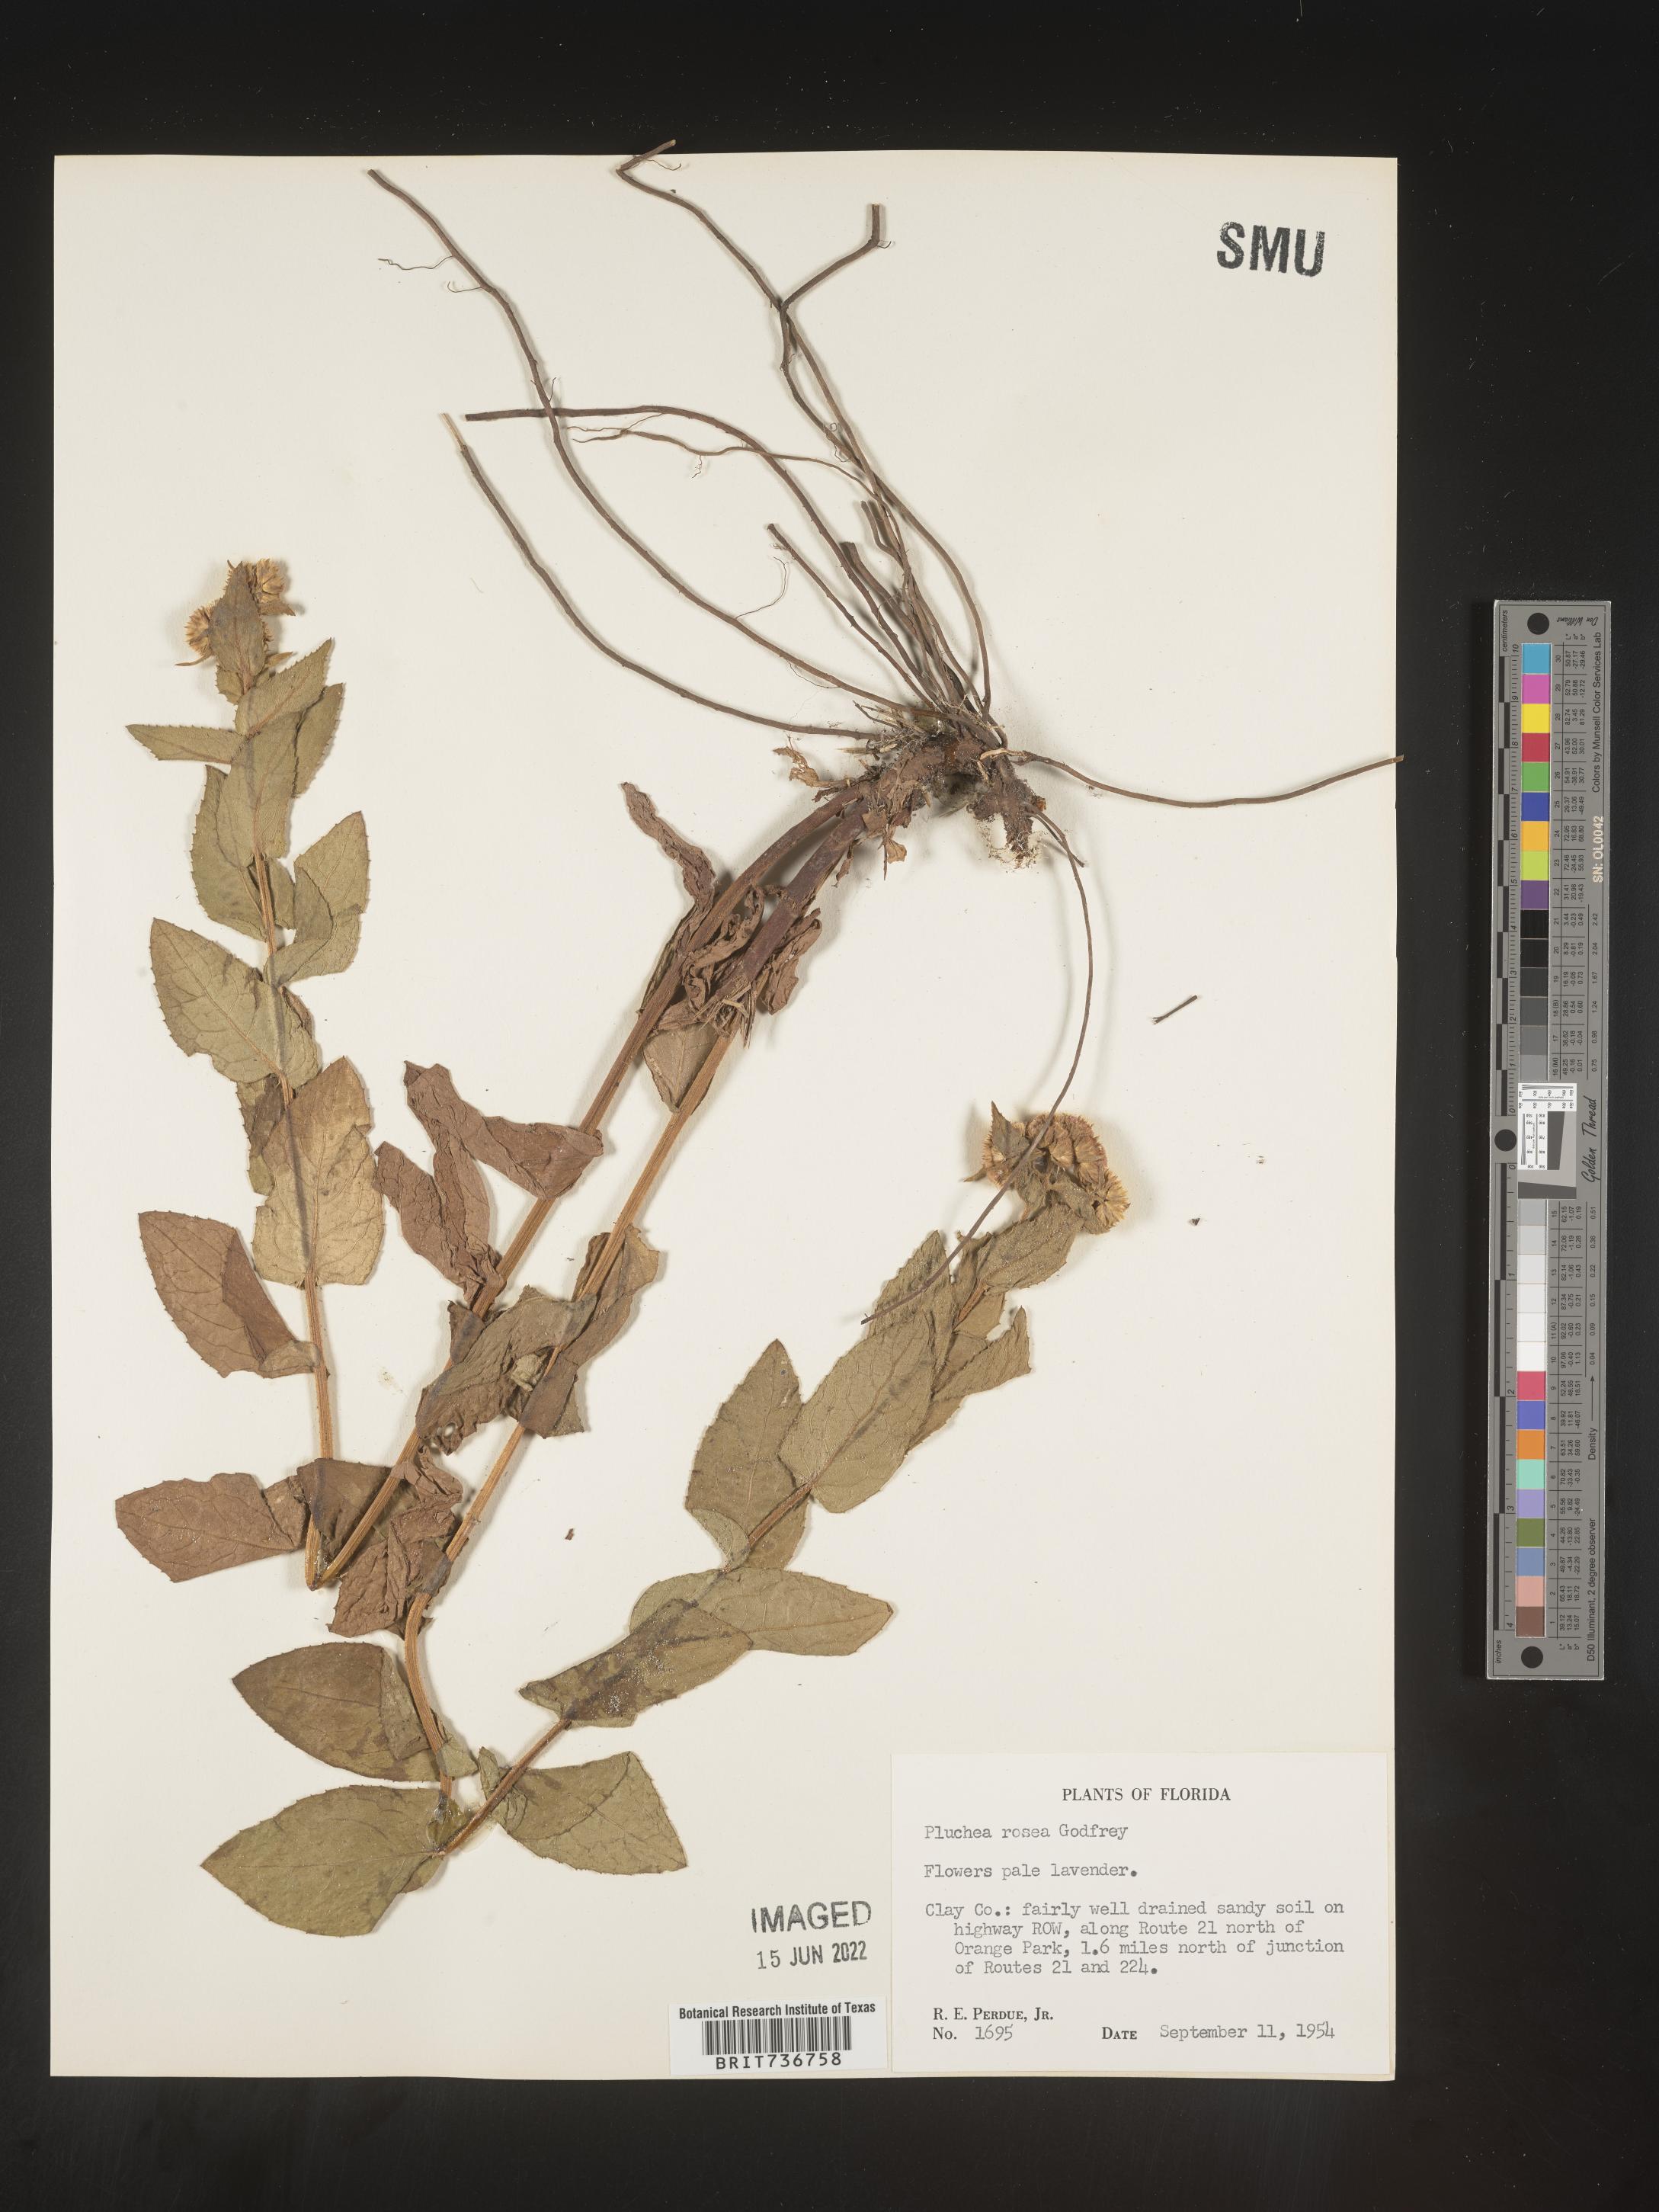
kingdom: Plantae
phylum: Tracheophyta
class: Magnoliopsida
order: Asterales
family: Asteraceae
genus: Pluchea
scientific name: Pluchea baccharis
